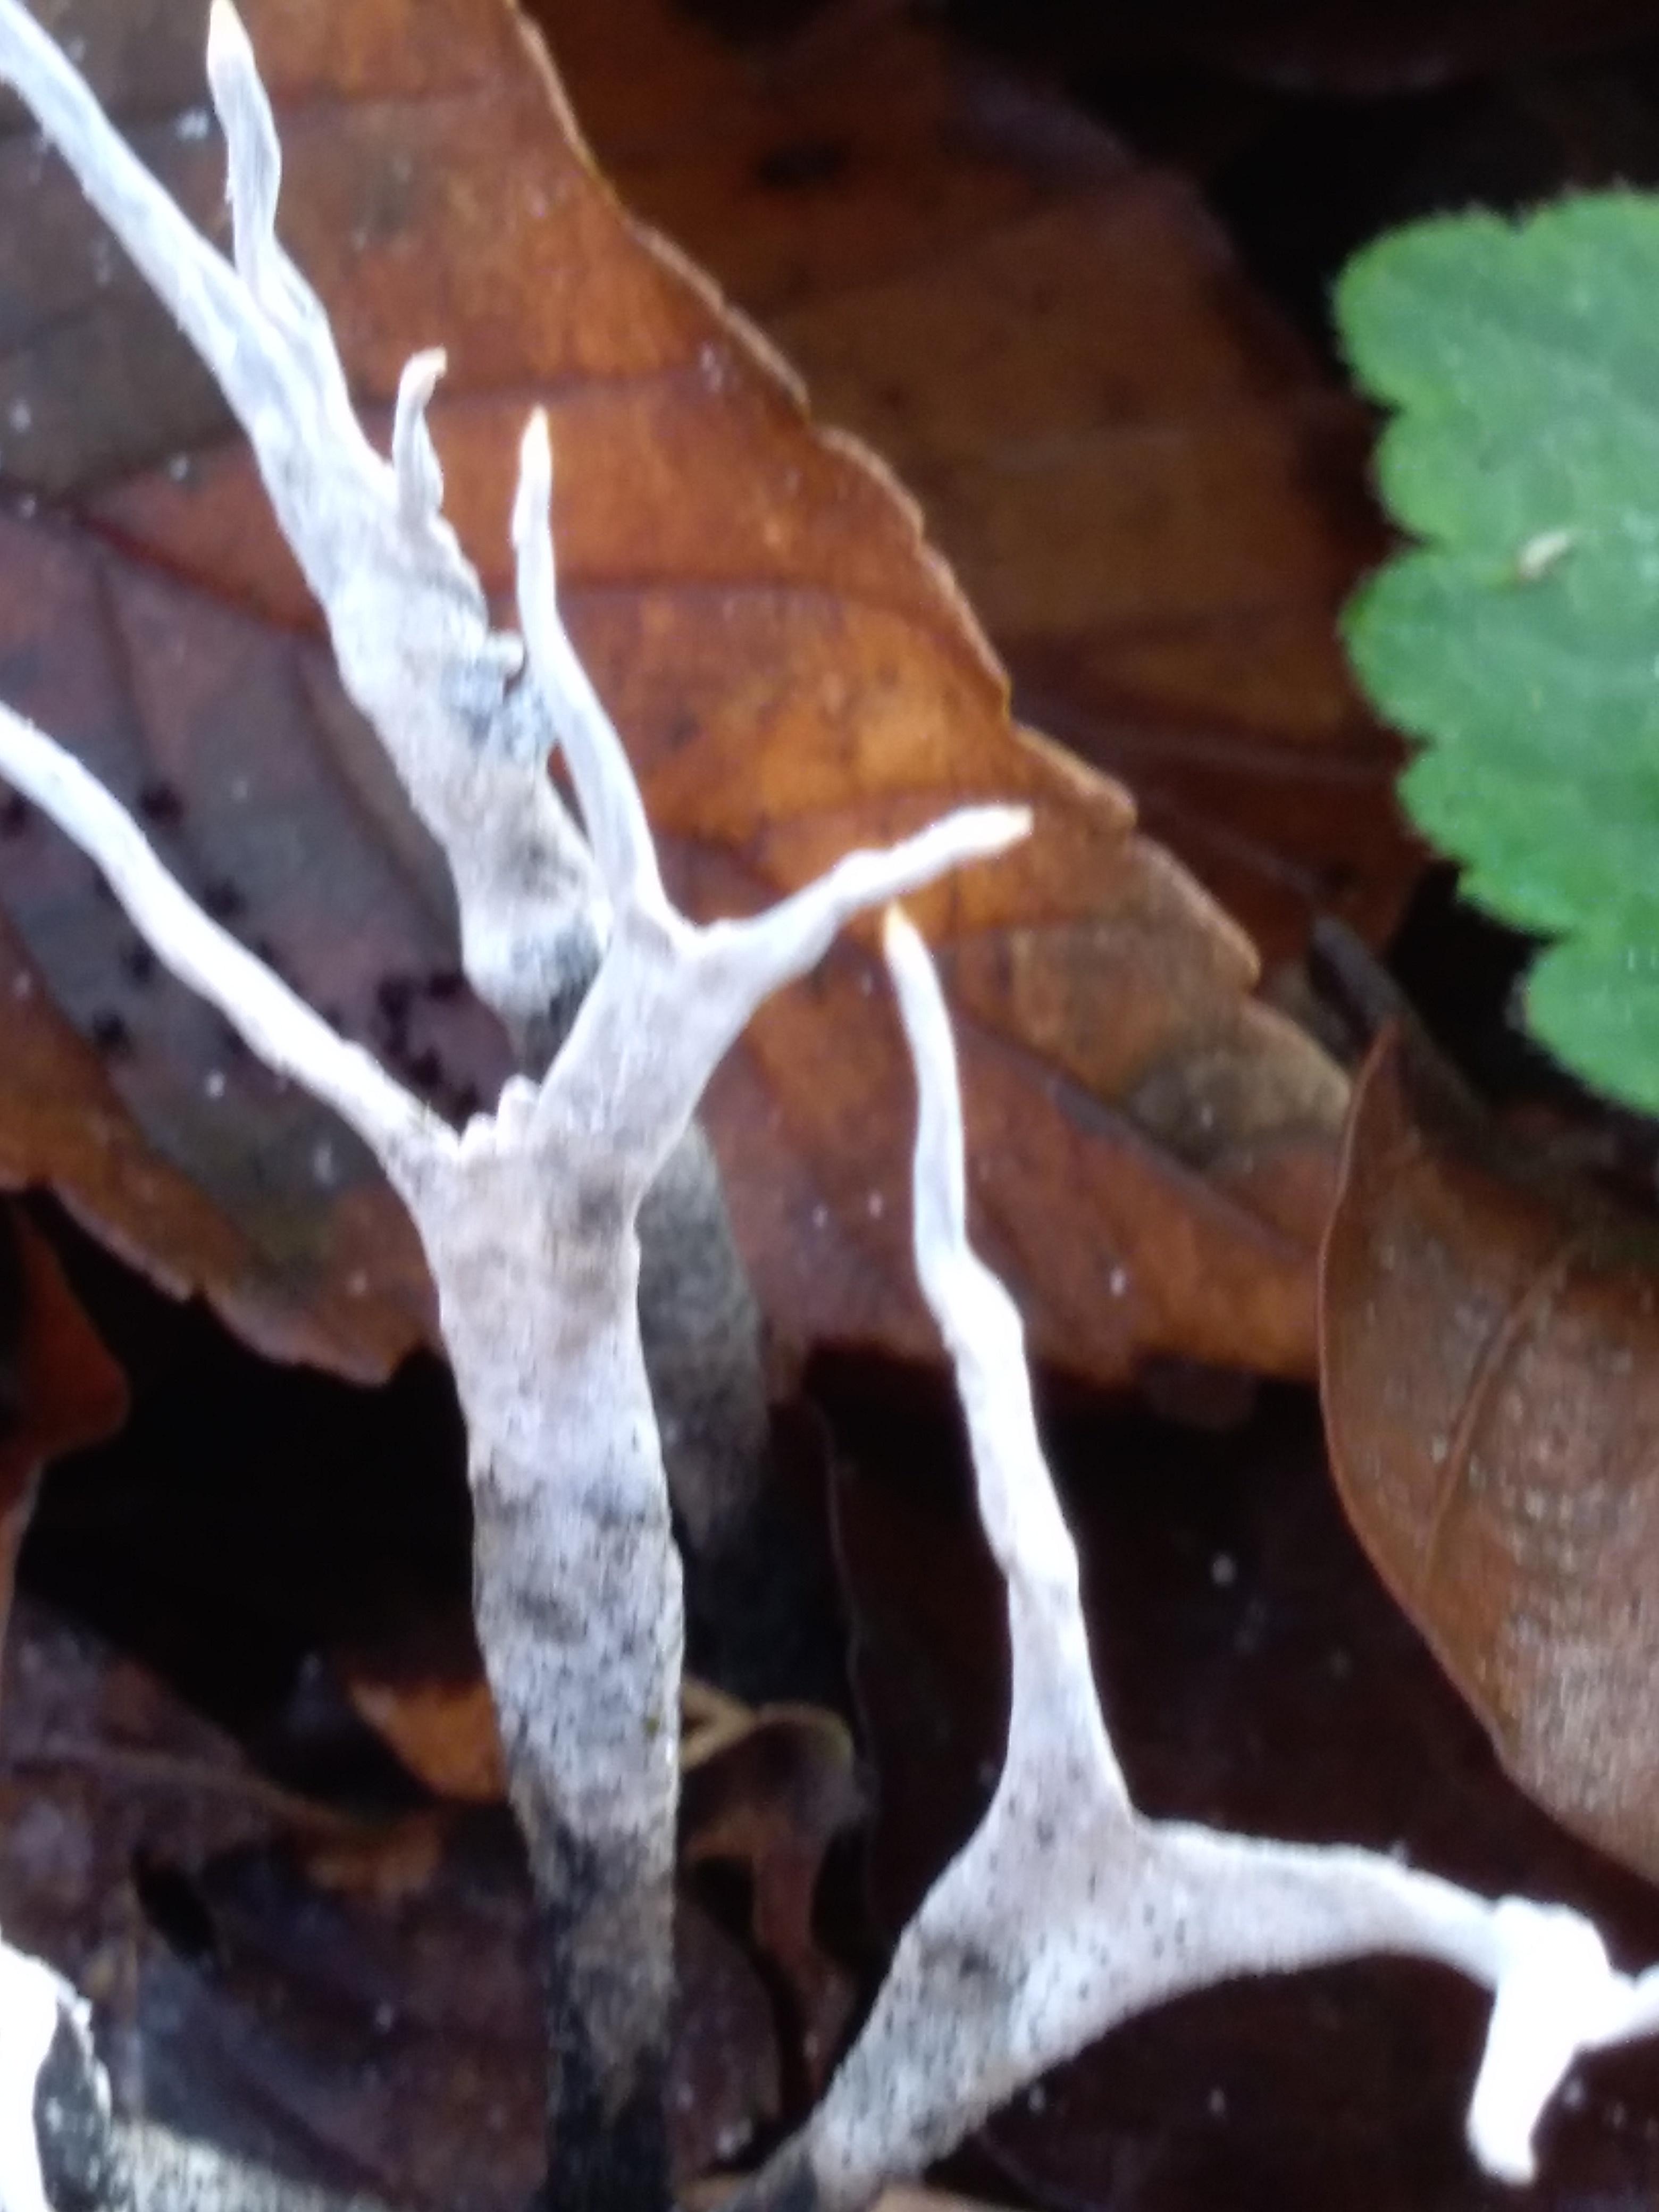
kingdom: Fungi
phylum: Ascomycota
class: Sordariomycetes
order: Xylariales
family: Xylariaceae
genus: Xylaria
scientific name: Xylaria hypoxylon
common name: grenet stødsvamp
